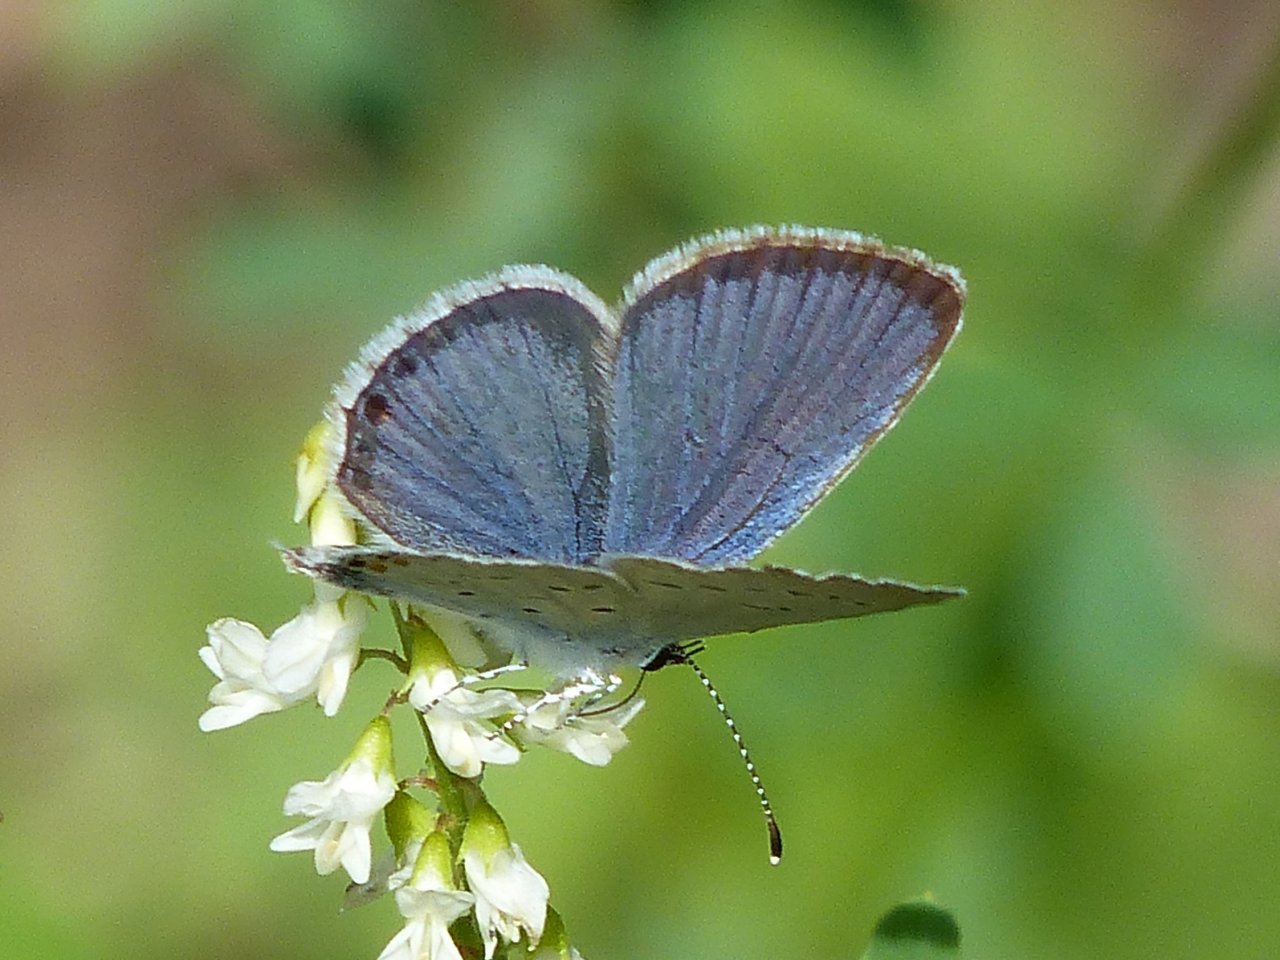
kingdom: Animalia
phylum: Arthropoda
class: Insecta
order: Lepidoptera
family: Lycaenidae
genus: Elkalyce
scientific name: Elkalyce comyntas
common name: Eastern Tailed-Blue
